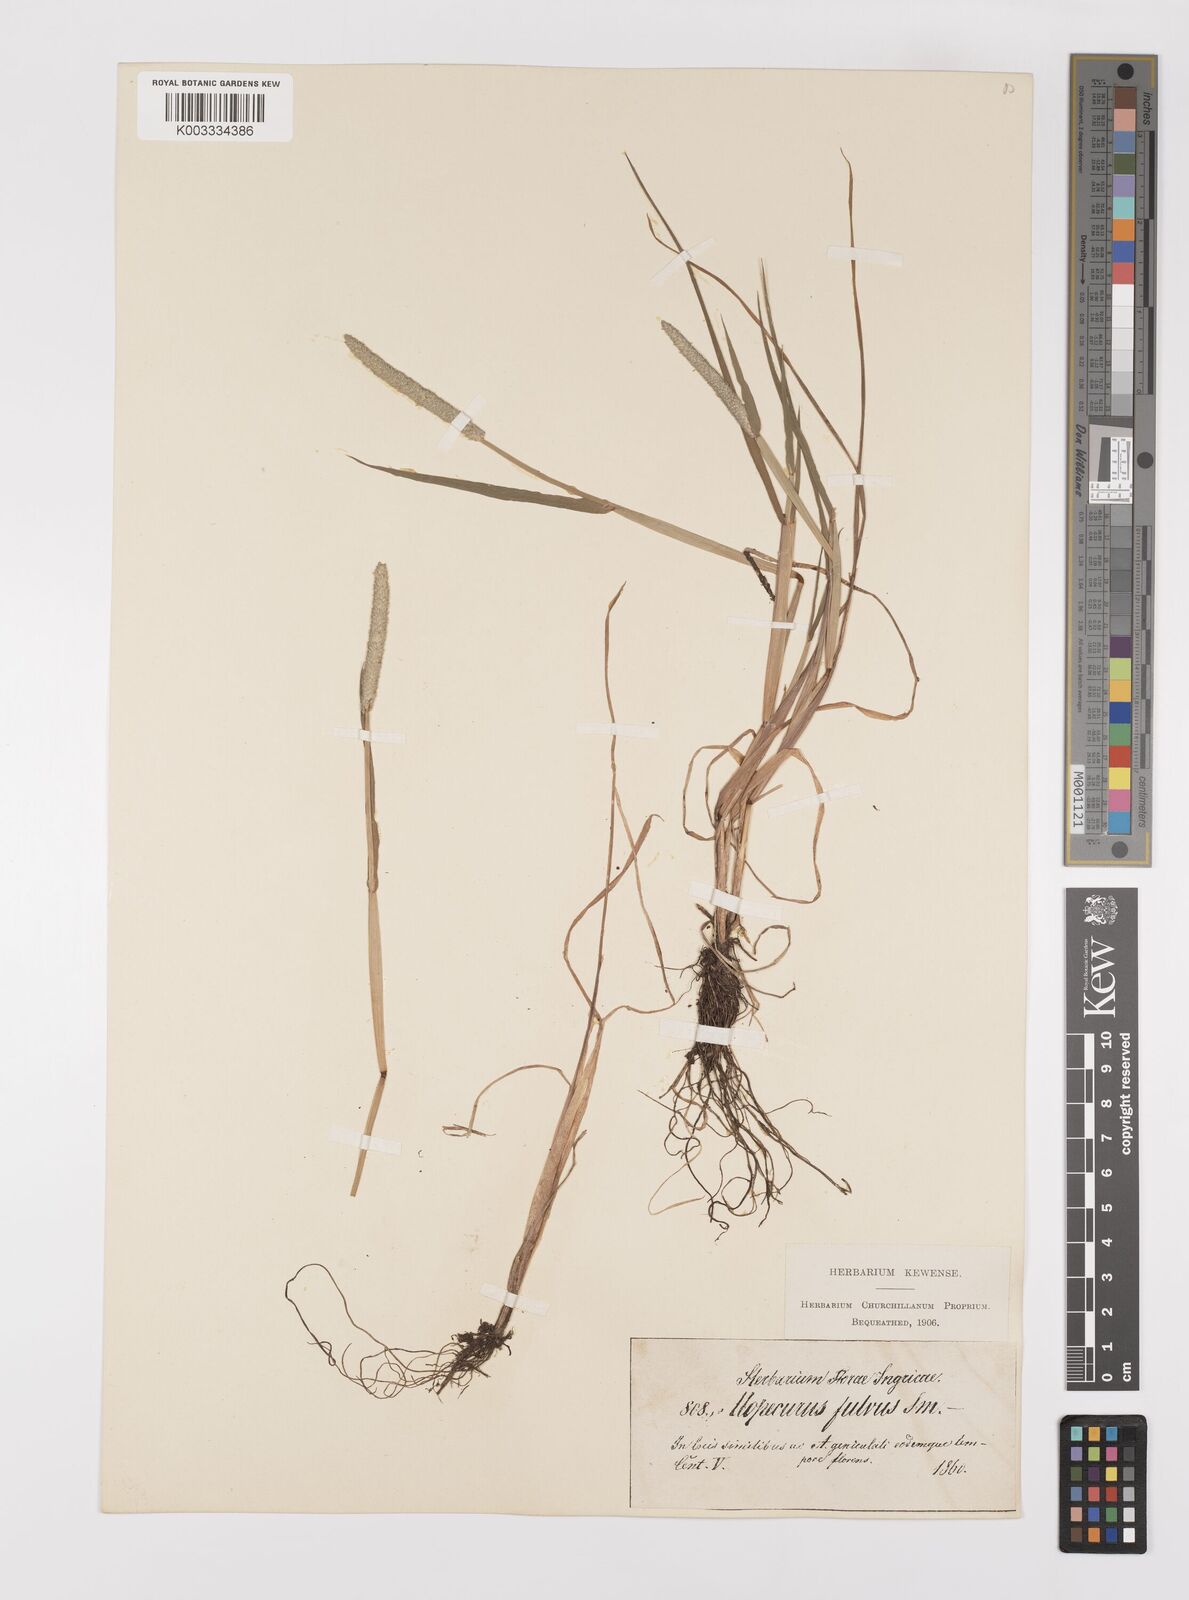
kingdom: Plantae
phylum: Tracheophyta
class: Liliopsida
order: Poales
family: Poaceae
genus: Alopecurus
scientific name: Alopecurus aequalis
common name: Orange foxtail
